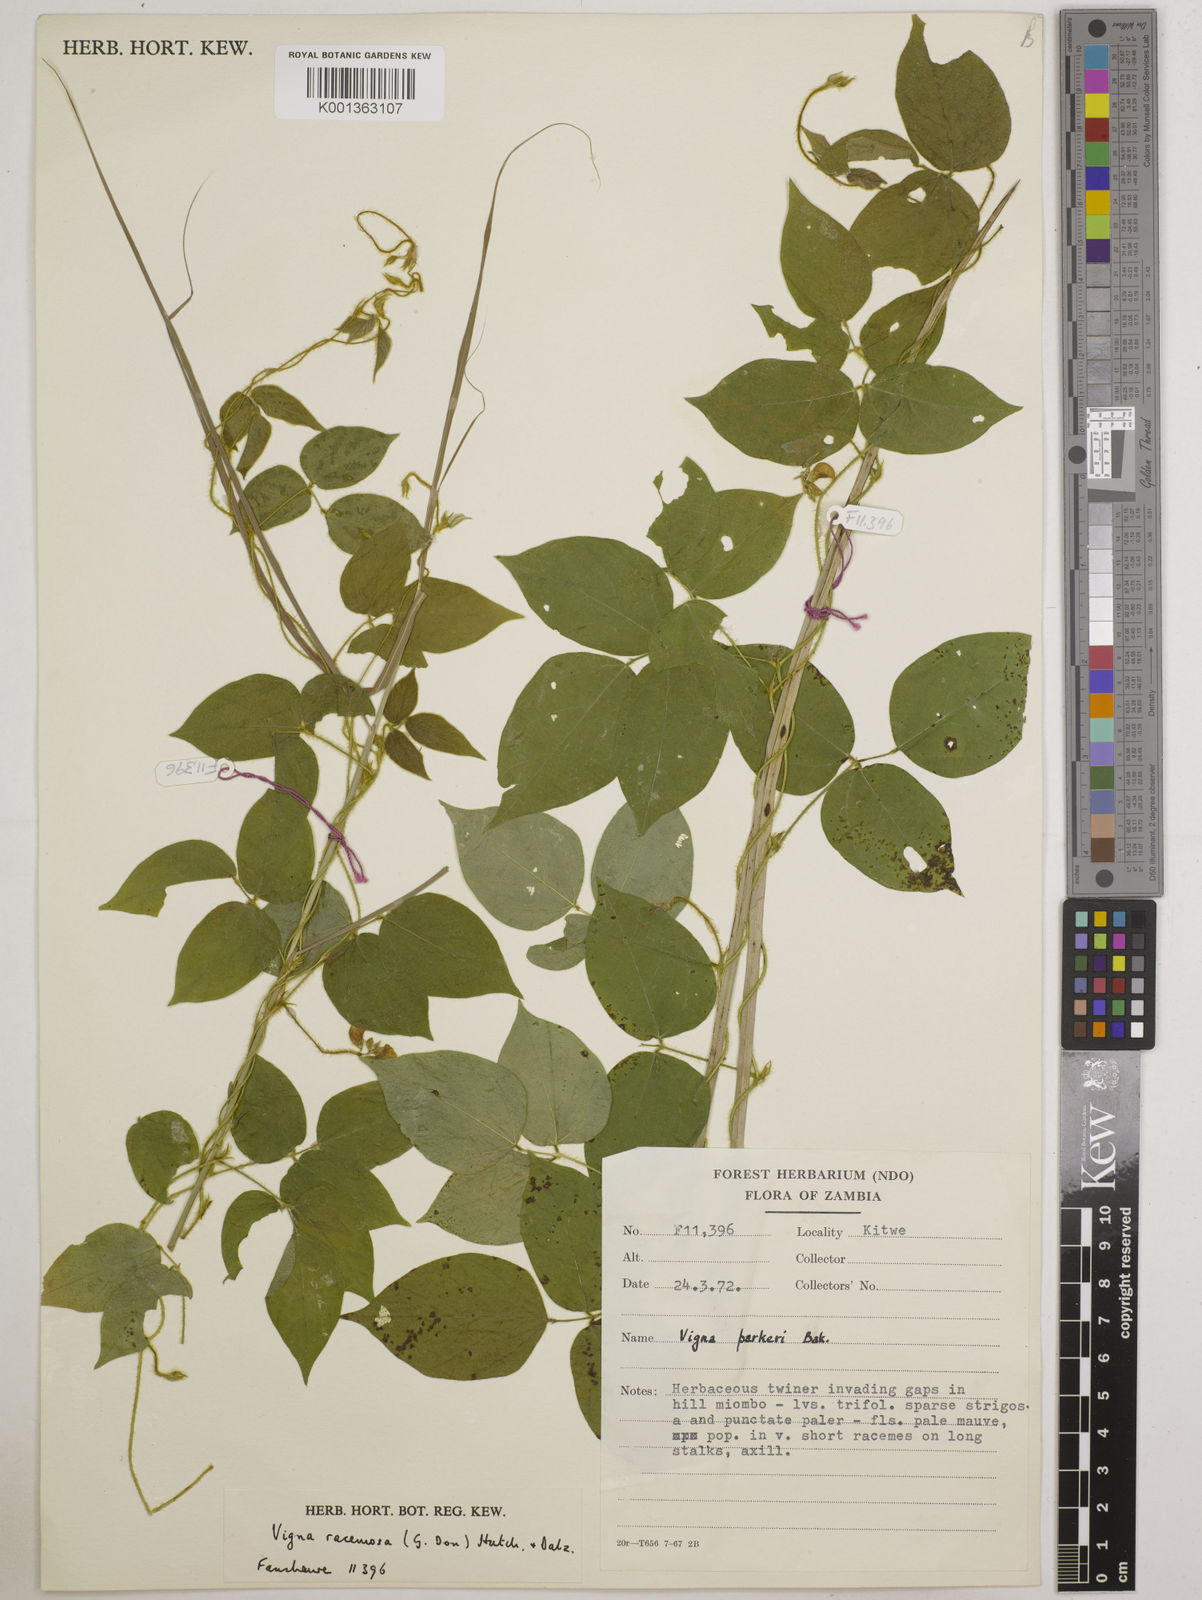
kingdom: Plantae
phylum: Tracheophyta
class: Magnoliopsida
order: Fabales
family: Fabaceae
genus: Vigna
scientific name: Vigna racemosa
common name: Beans not eaten
